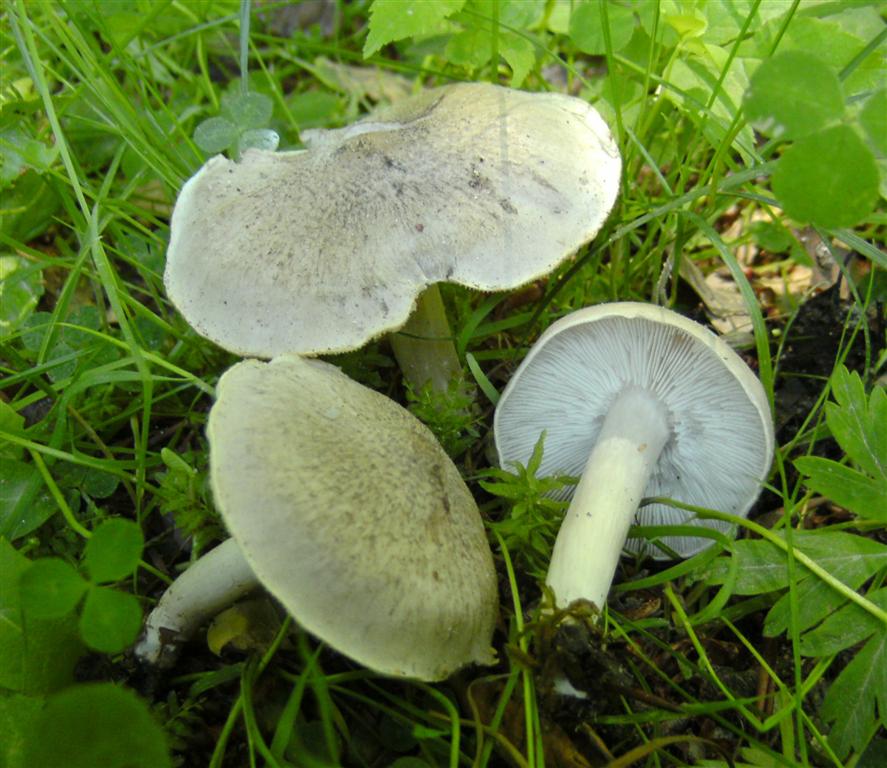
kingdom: Fungi
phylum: Basidiomycota
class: Agaricomycetes
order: Agaricales
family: Tricholomataceae
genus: Tricholoma
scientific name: Tricholoma scalpturatum
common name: gulplettet ridderhat
